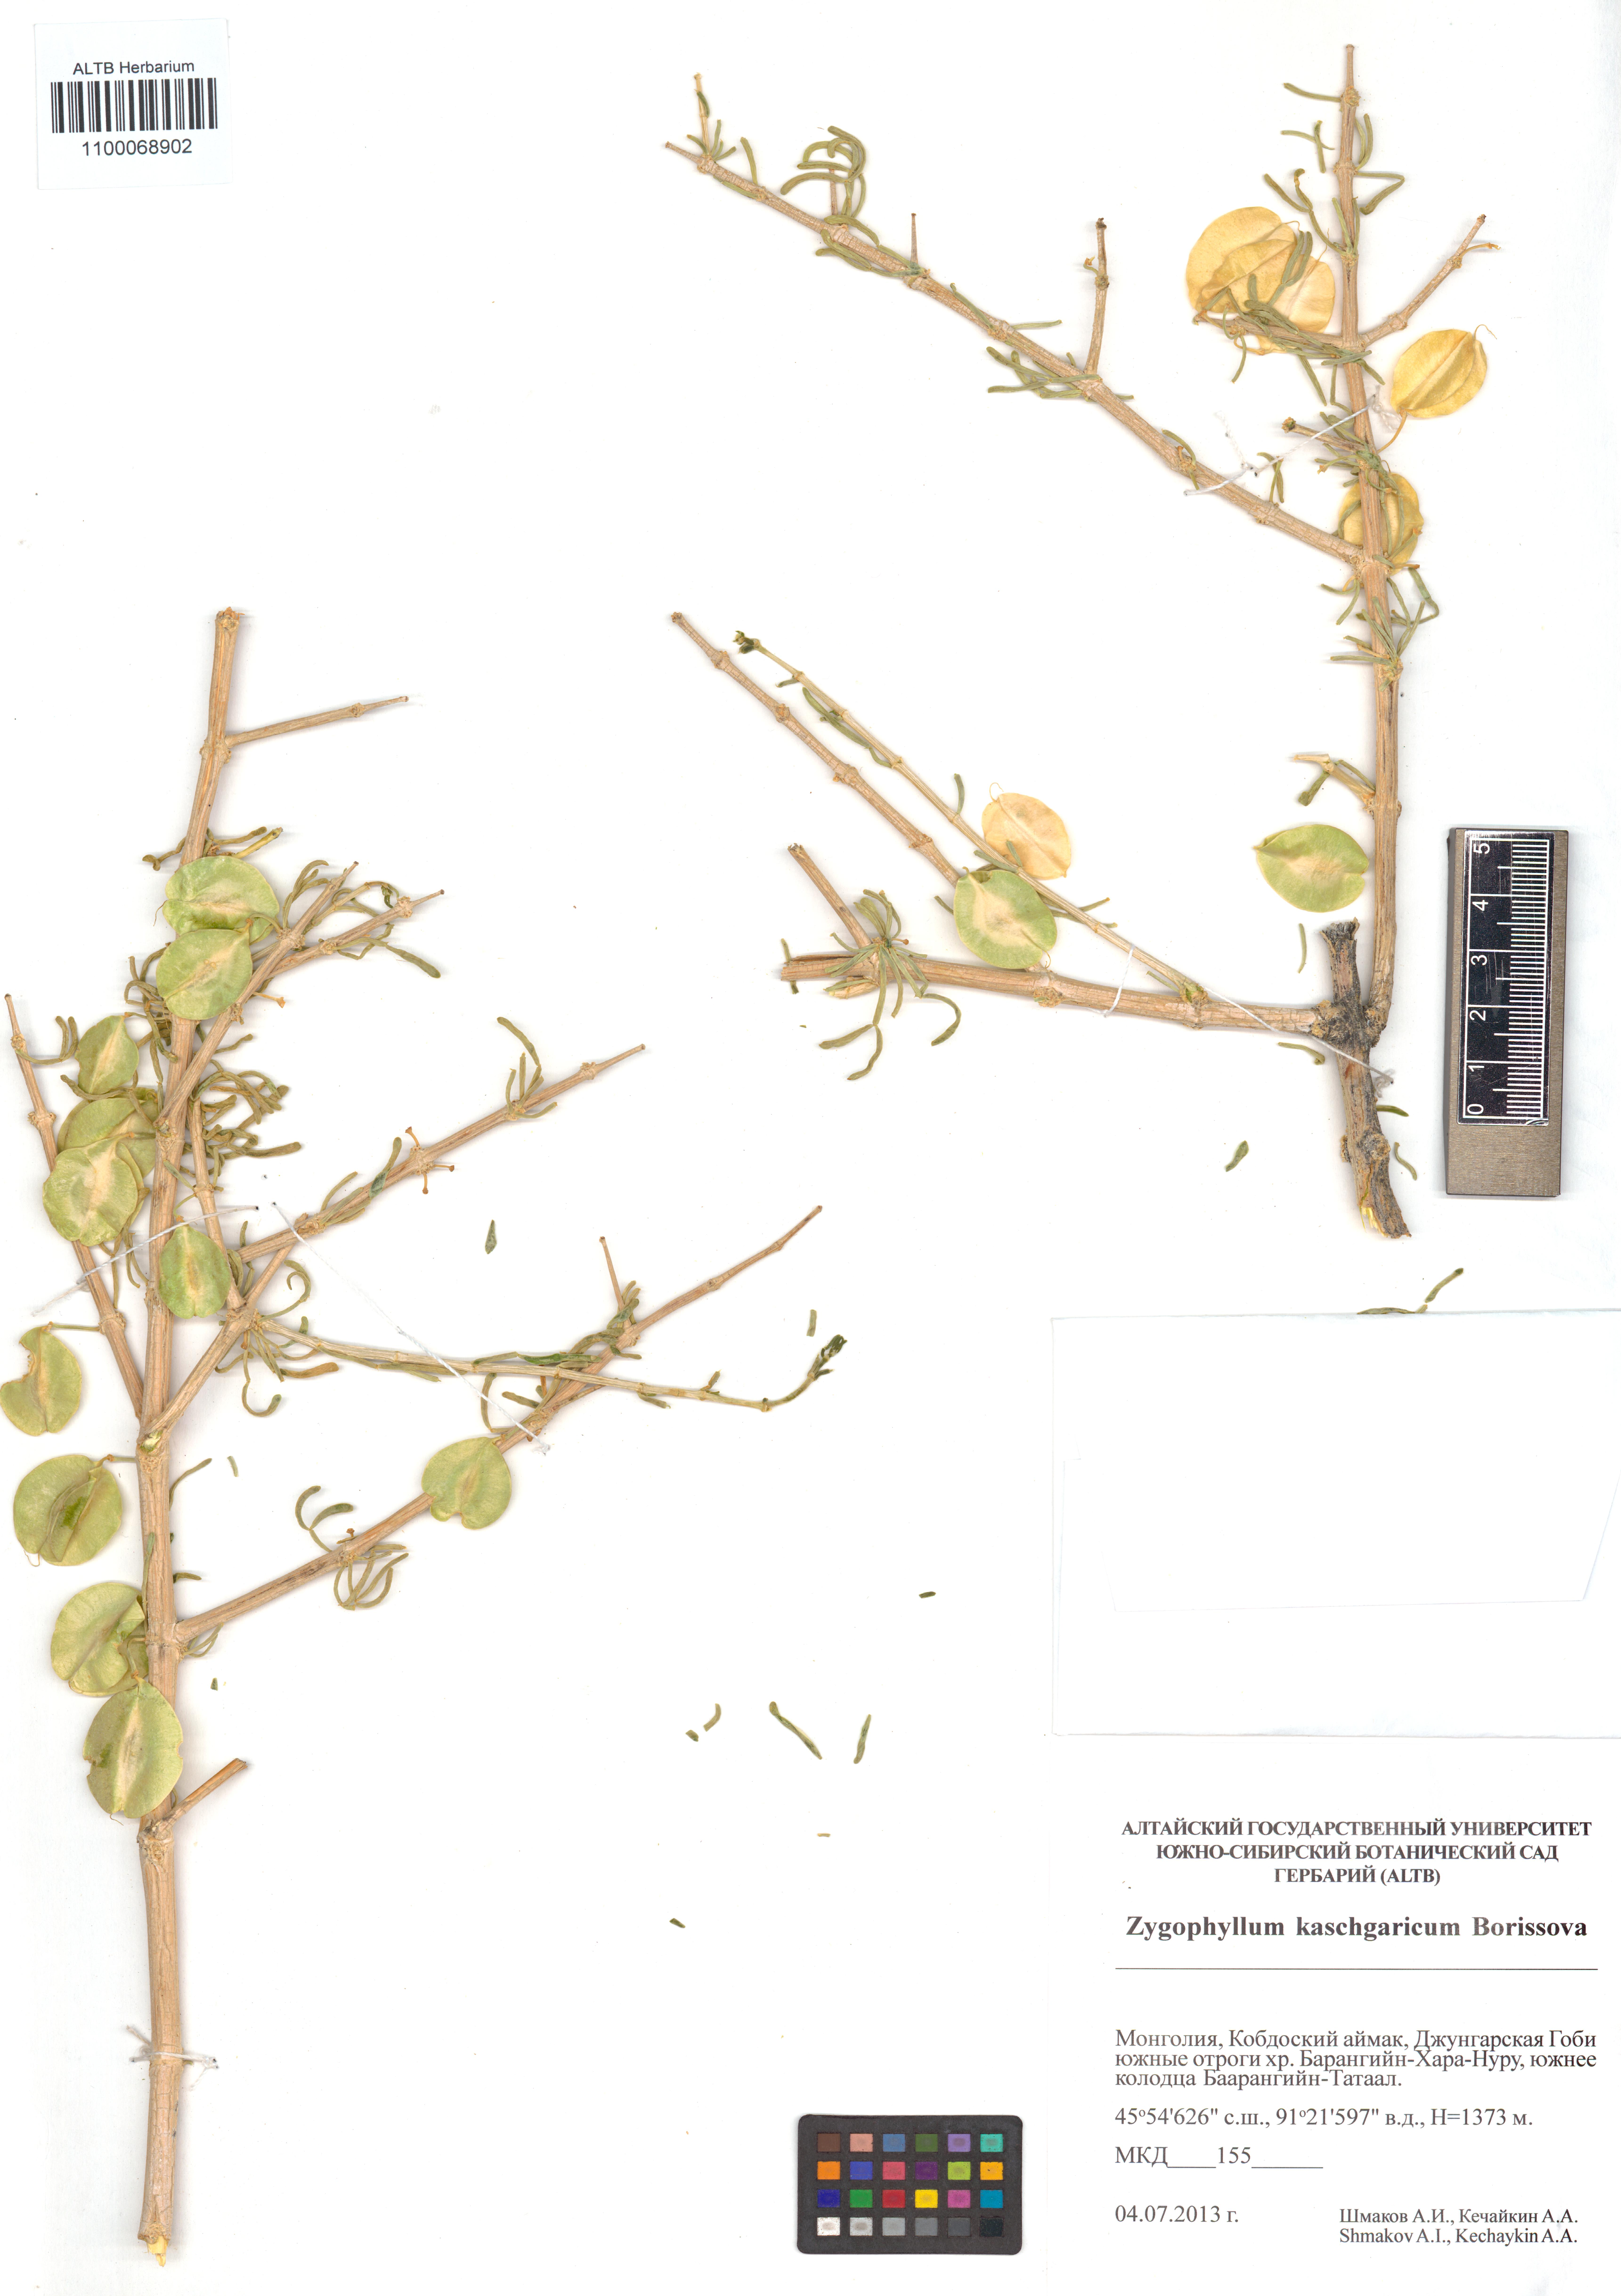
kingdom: Plantae
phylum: Tracheophyta
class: Magnoliopsida
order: Zygophyllales
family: Zygophyllaceae
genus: Zygophyllum
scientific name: Zygophyllum kaschgaricum
